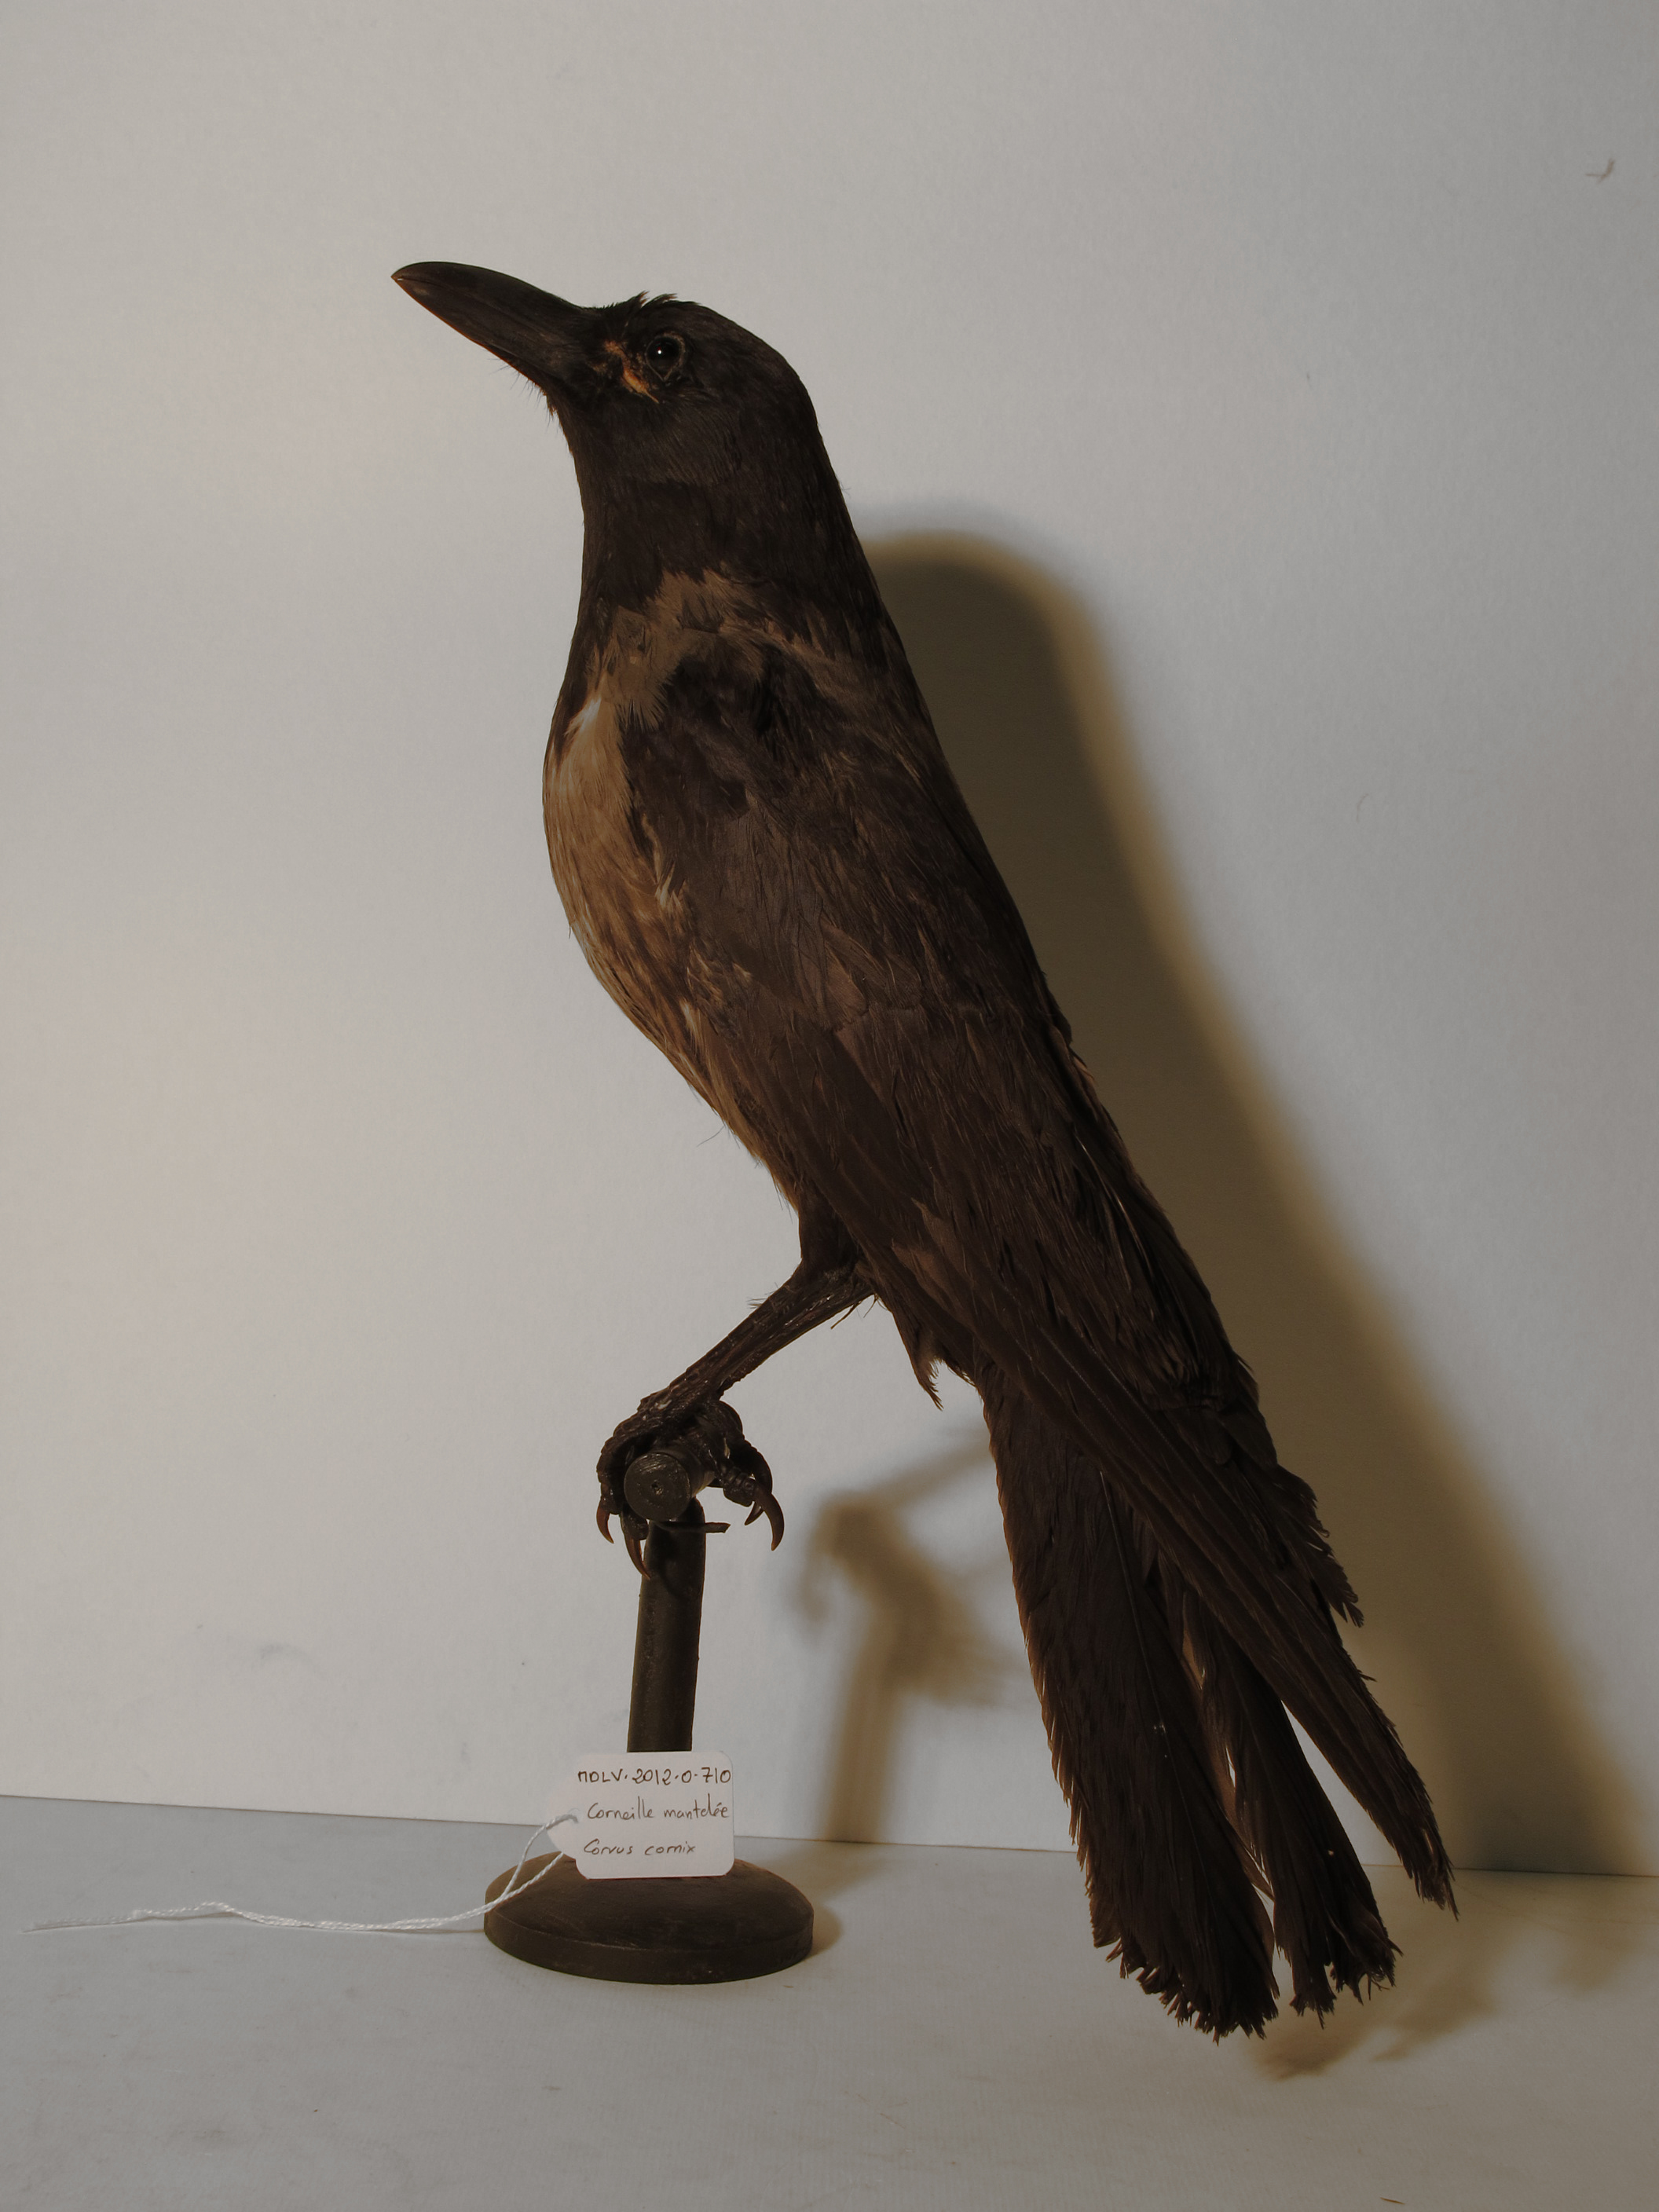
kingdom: Animalia
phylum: Chordata
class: Aves
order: Passeriformes
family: Corvidae
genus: Corvus
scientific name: Corvus cornix
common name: Hooded Crow
